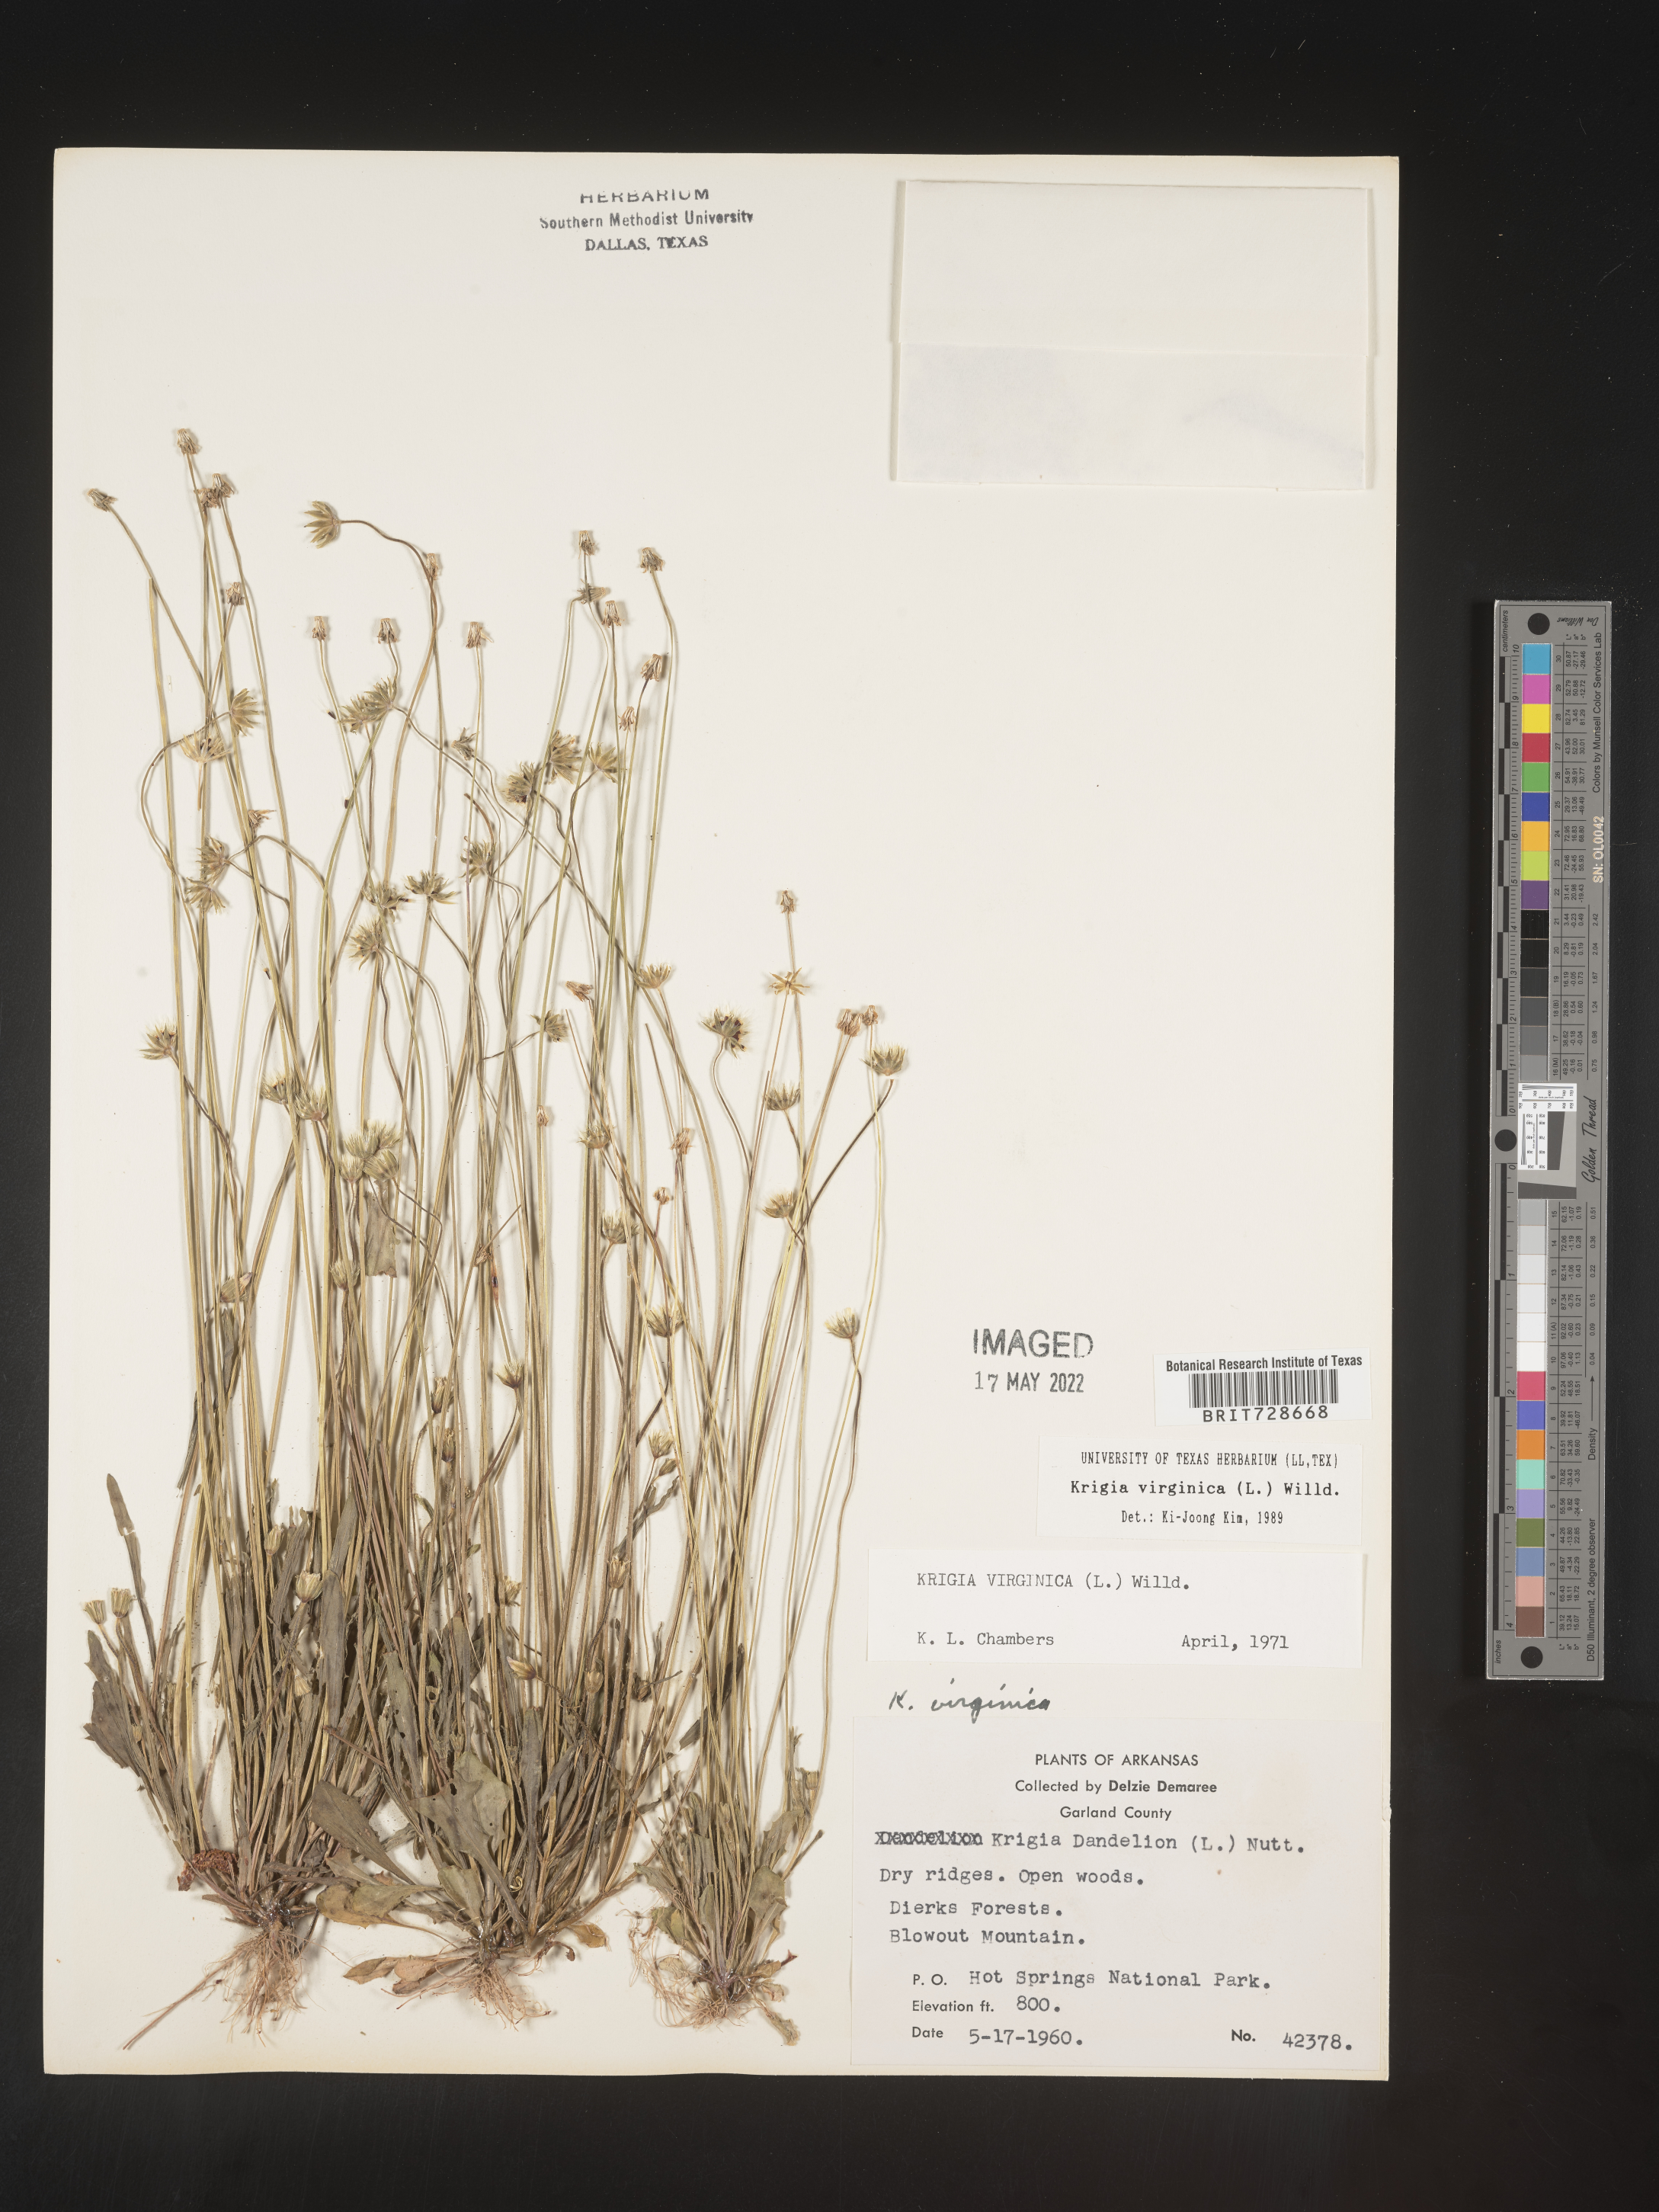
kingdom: Plantae
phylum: Tracheophyta
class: Magnoliopsida
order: Asterales
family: Asteraceae
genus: Krigia
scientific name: Krigia virginica
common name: Virginia dwarf-dandelion
